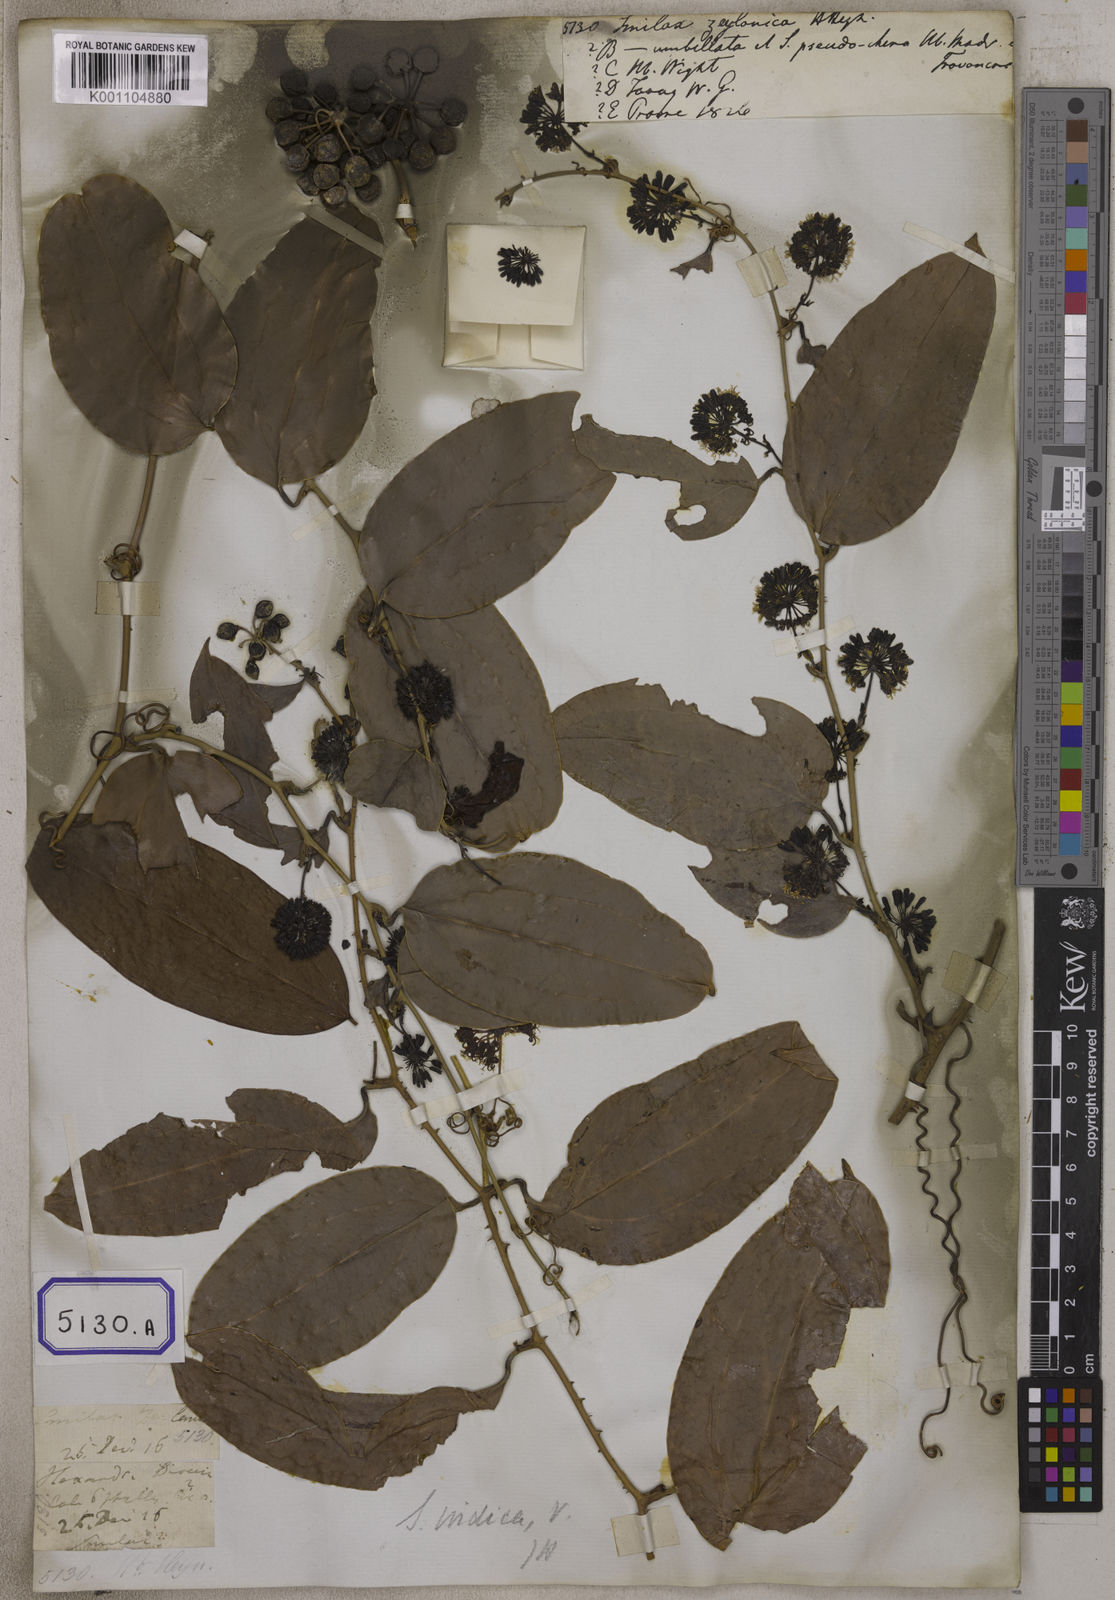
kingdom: Plantae
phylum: Tracheophyta
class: Liliopsida
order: Liliales
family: Smilacaceae
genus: Smilax
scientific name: Smilax zeylanica
